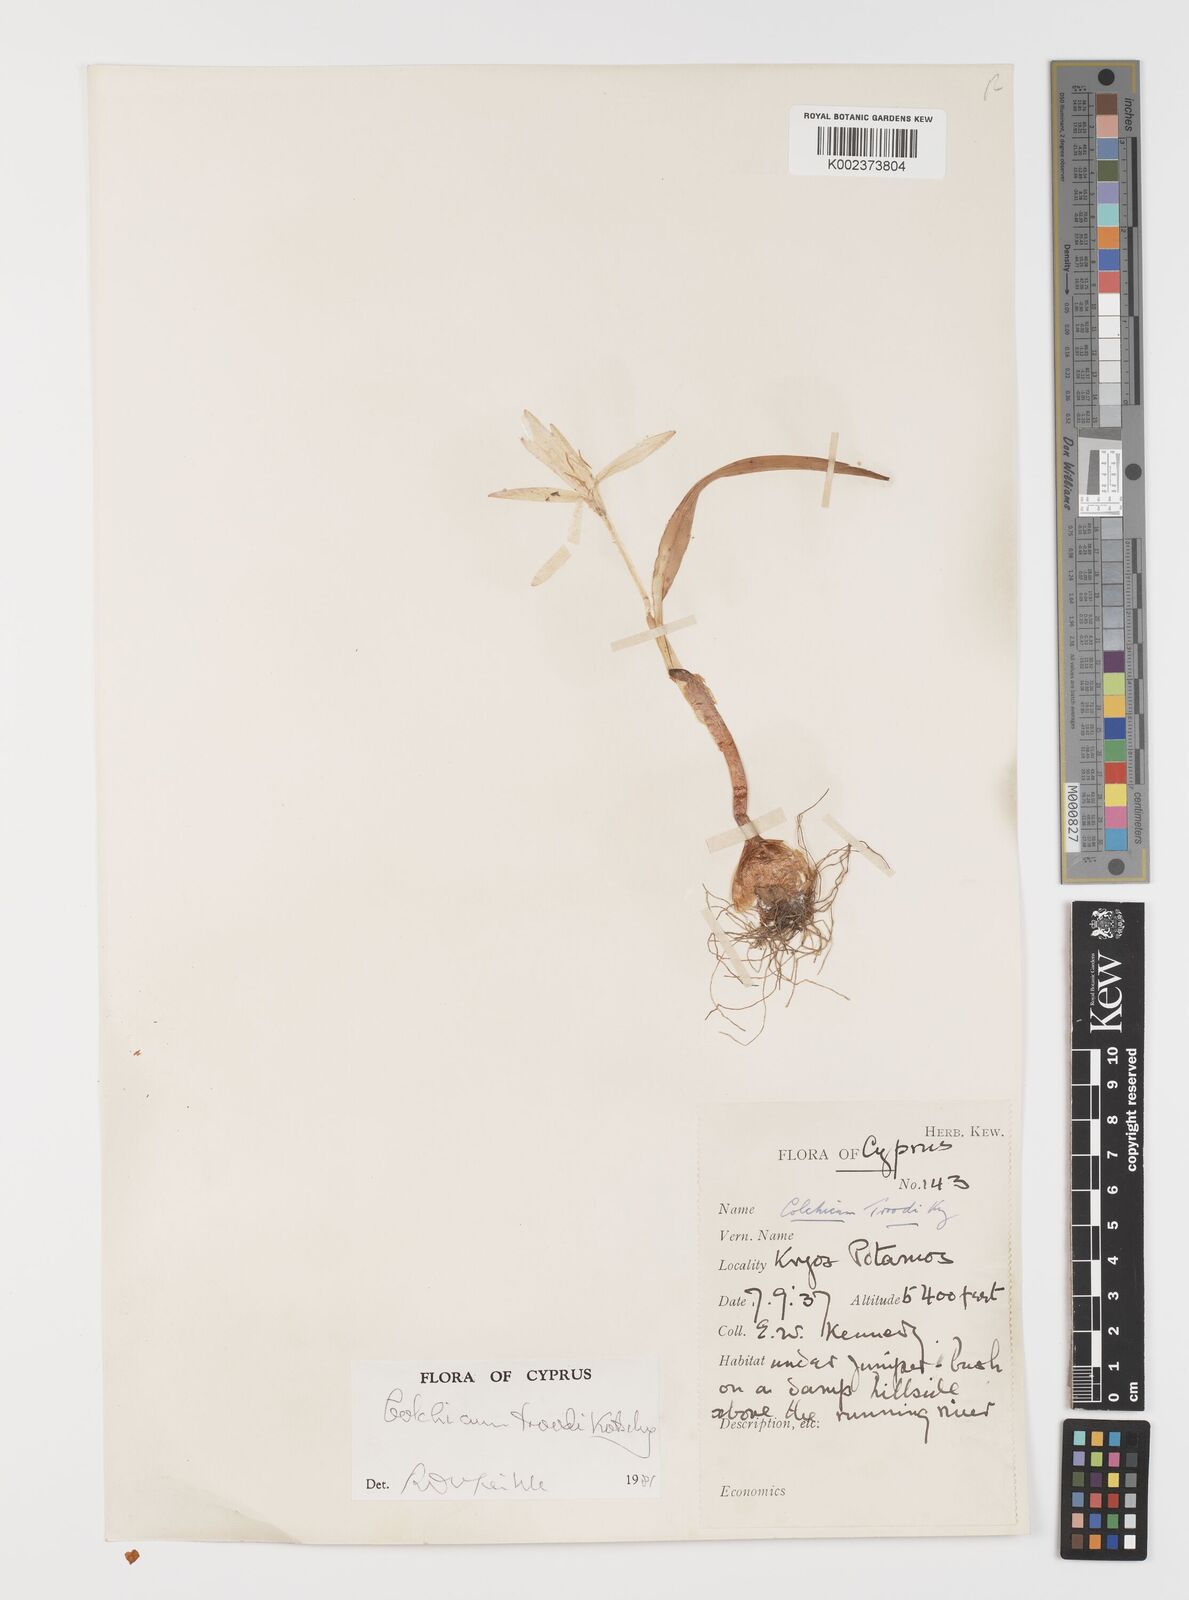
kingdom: Plantae
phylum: Tracheophyta
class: Liliopsida
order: Liliales
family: Colchicaceae
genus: Colchicum
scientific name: Colchicum troodi
